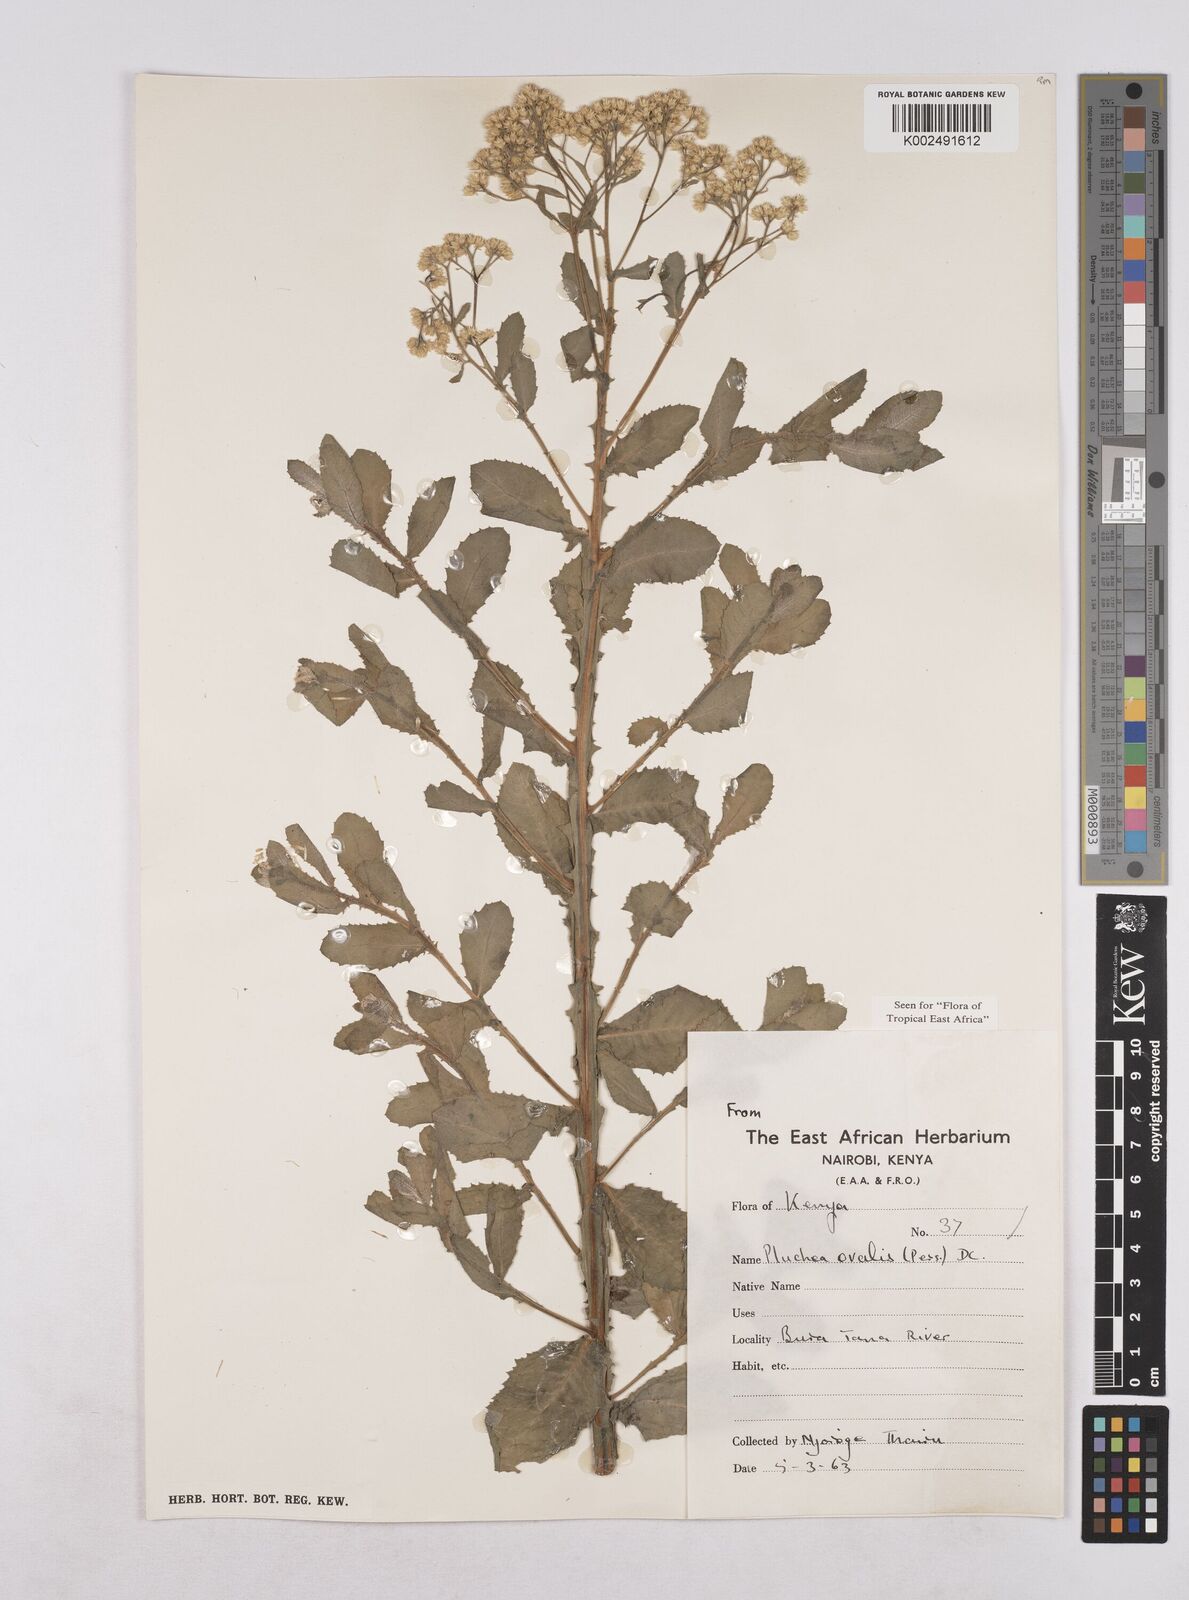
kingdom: Plantae
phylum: Tracheophyta
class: Magnoliopsida
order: Asterales
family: Asteraceae
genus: Pluchea
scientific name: Pluchea ovalis
